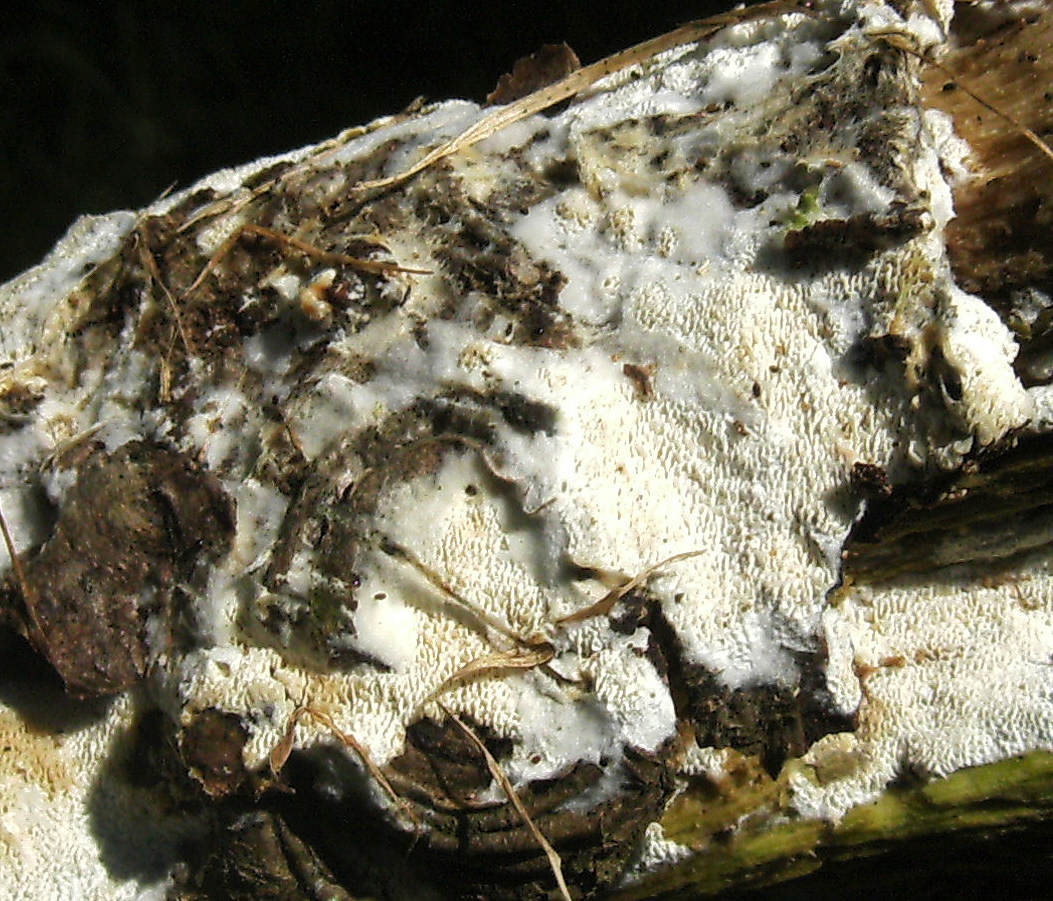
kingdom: Fungi
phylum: Basidiomycota
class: Agaricomycetes
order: Hymenochaetales
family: Schizoporaceae
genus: Xylodon
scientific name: Xylodon subtropicus
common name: labyrint-tandsvamp
